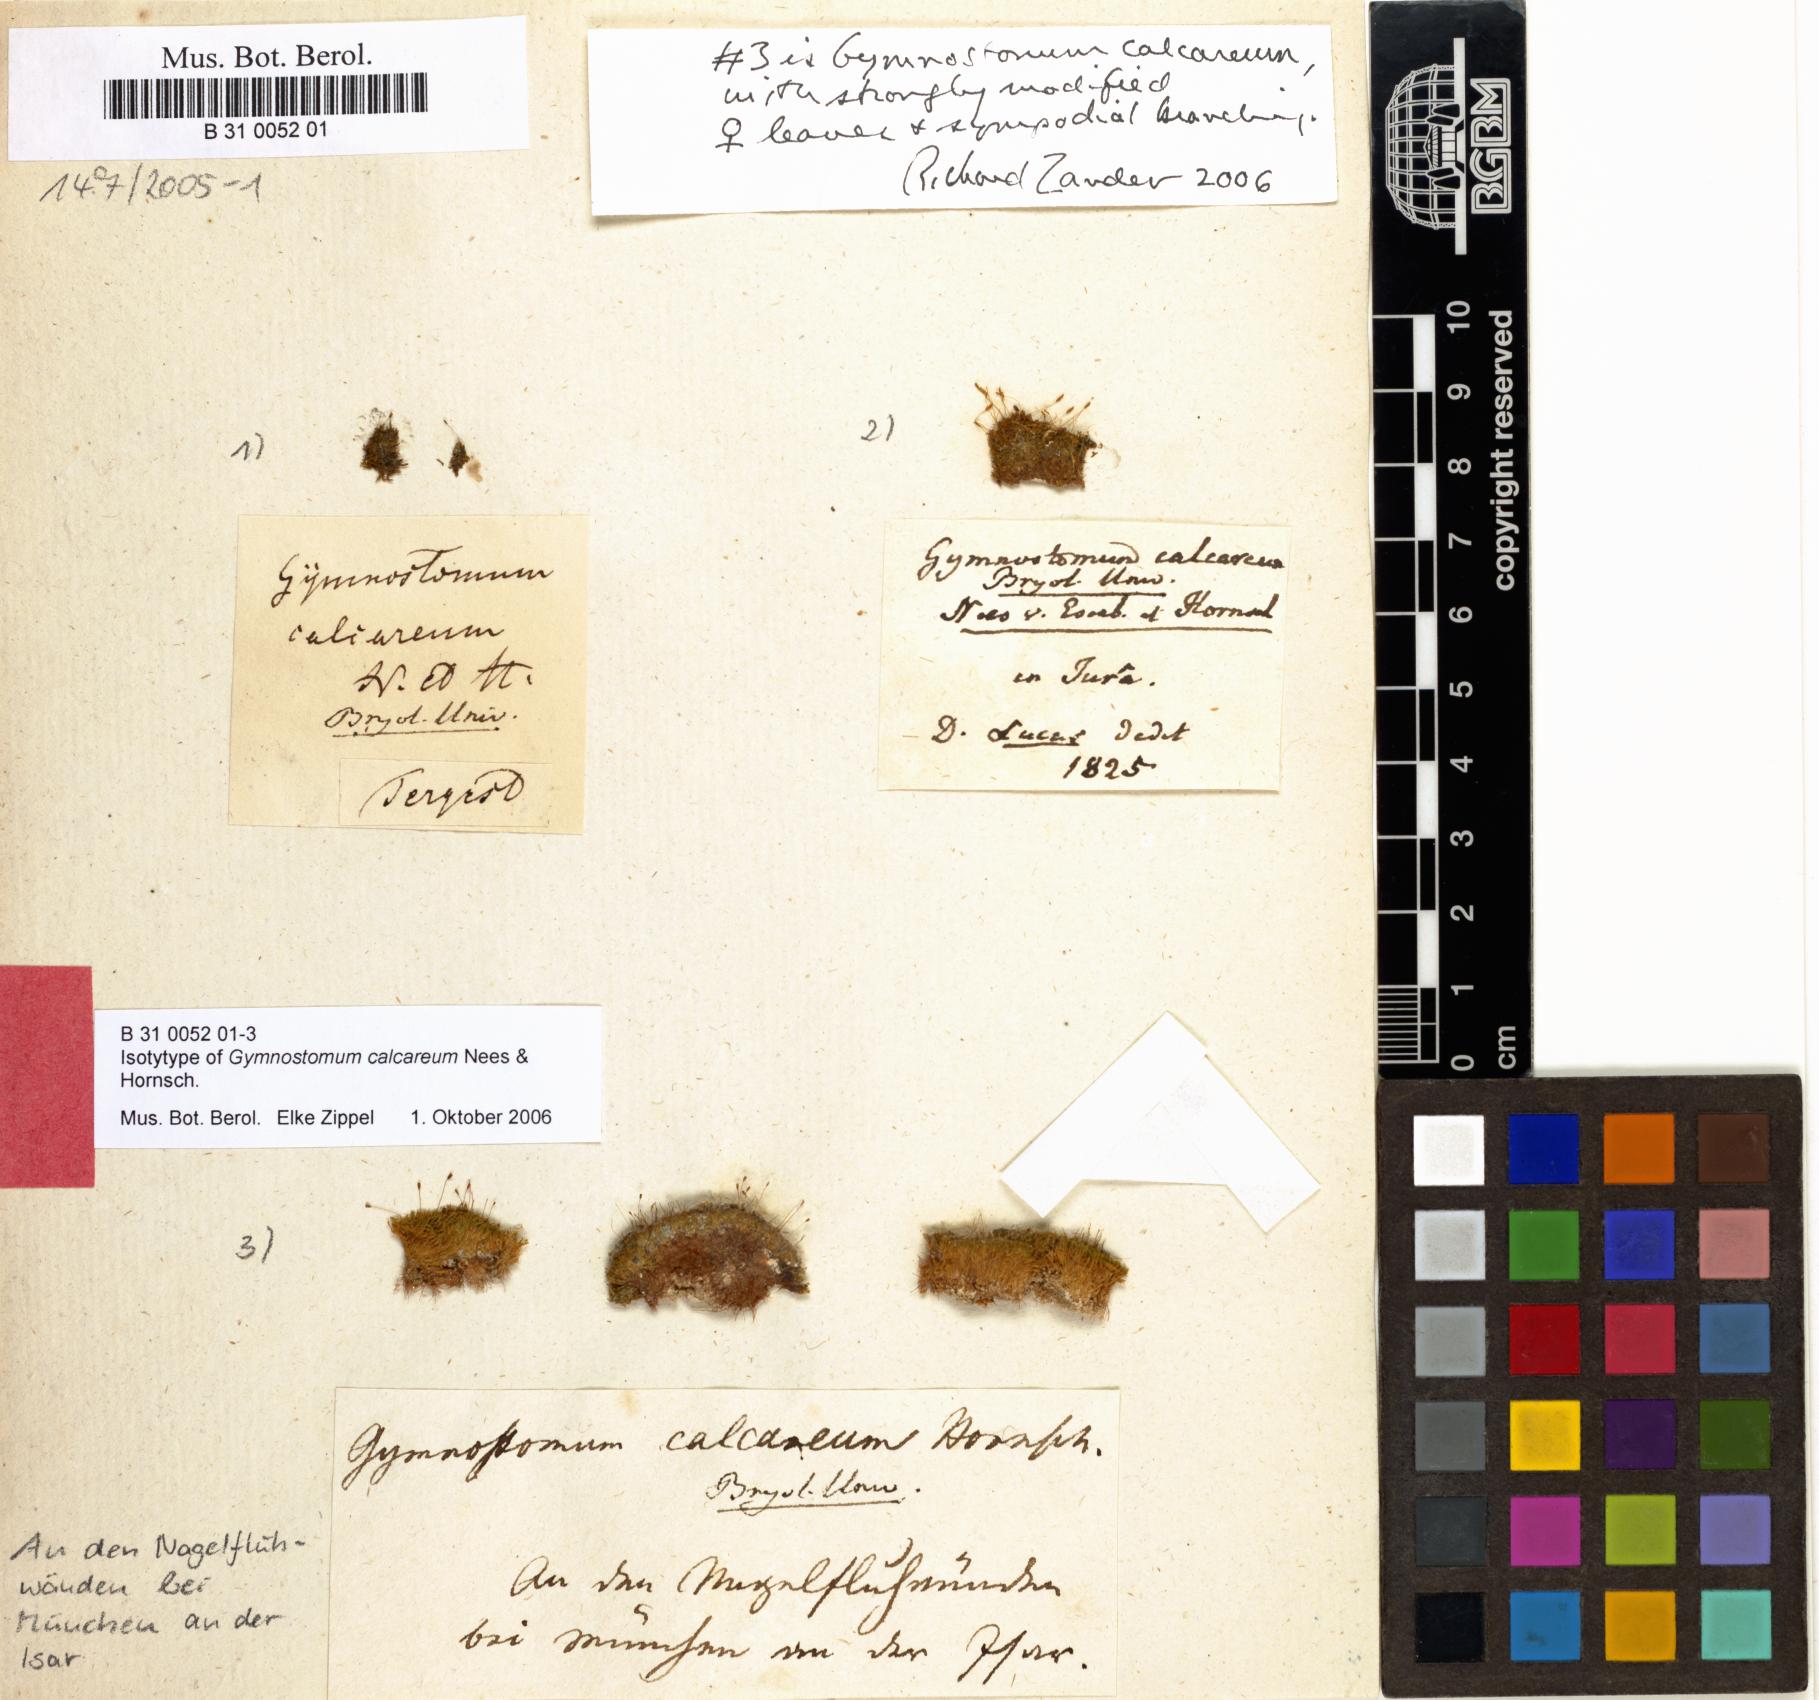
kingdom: Plantae
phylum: Bryophyta
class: Bryopsida
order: Pottiales
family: Pottiaceae
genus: Gymnostomum
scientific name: Gymnostomum calcareum
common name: Blunt-leaf tufa-moss
